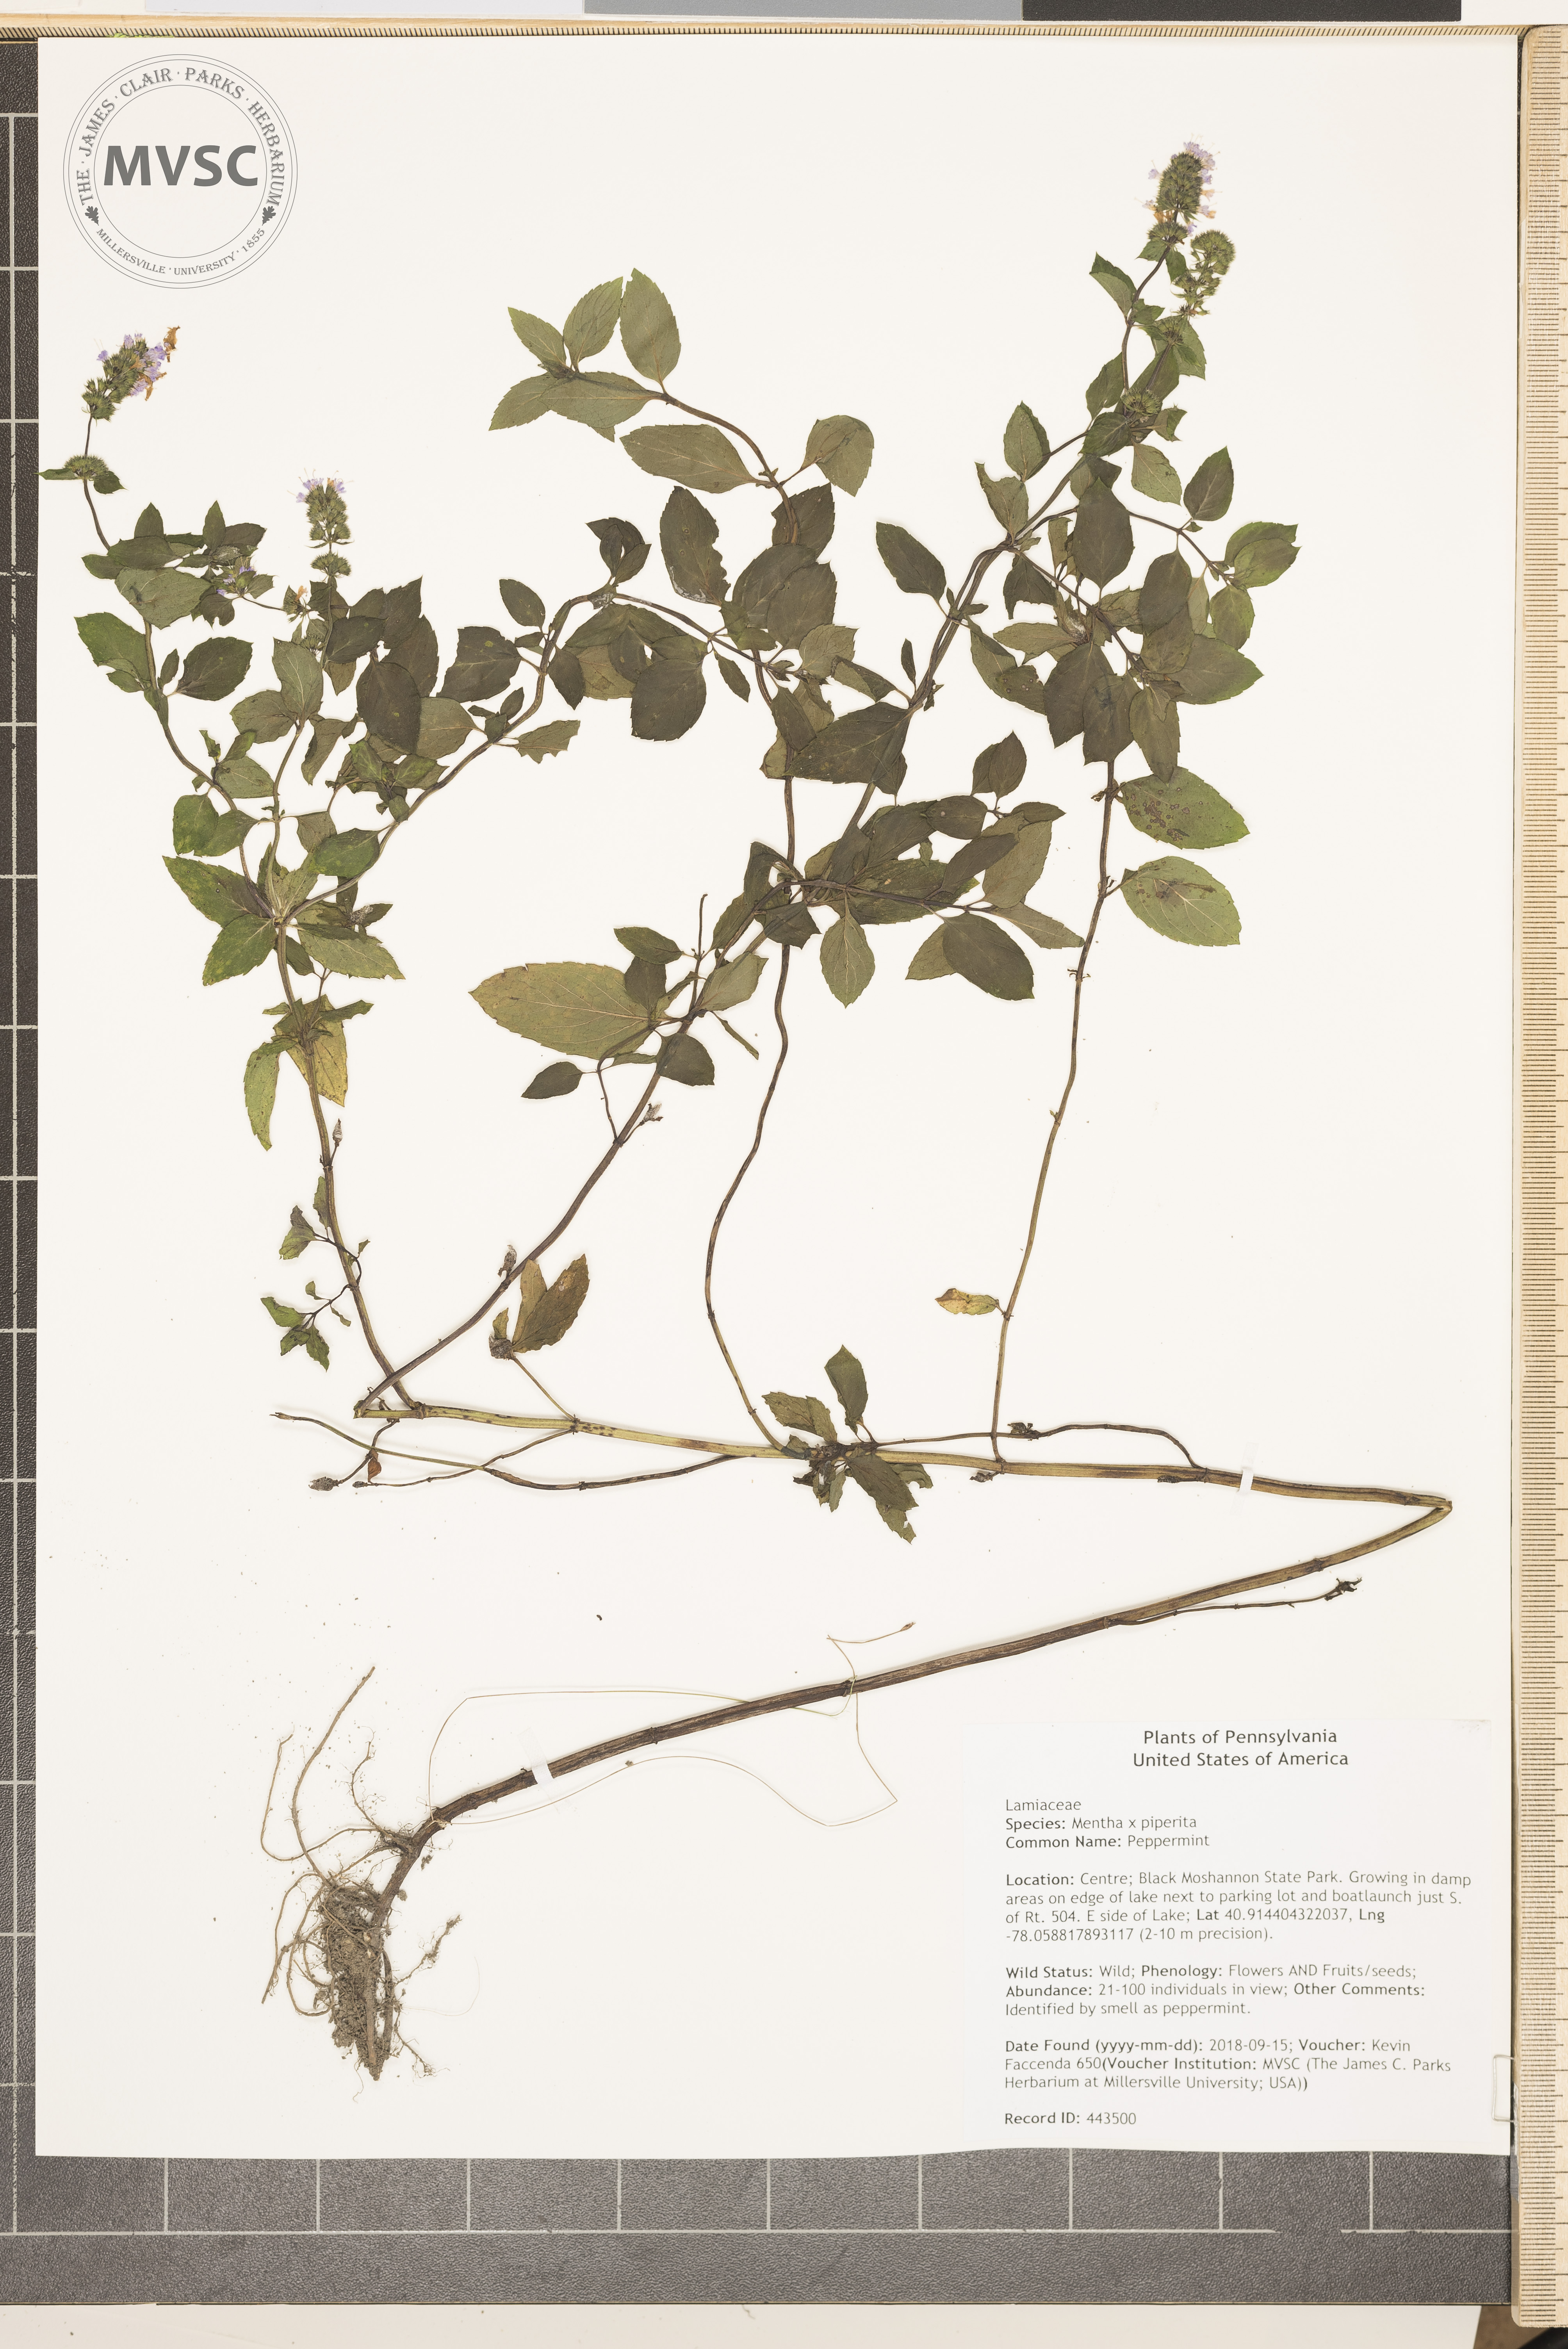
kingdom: Plantae
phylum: Tracheophyta
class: Magnoliopsida
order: Lamiales
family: Lamiaceae
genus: Mentha
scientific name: Mentha piperita
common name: Peppermint
